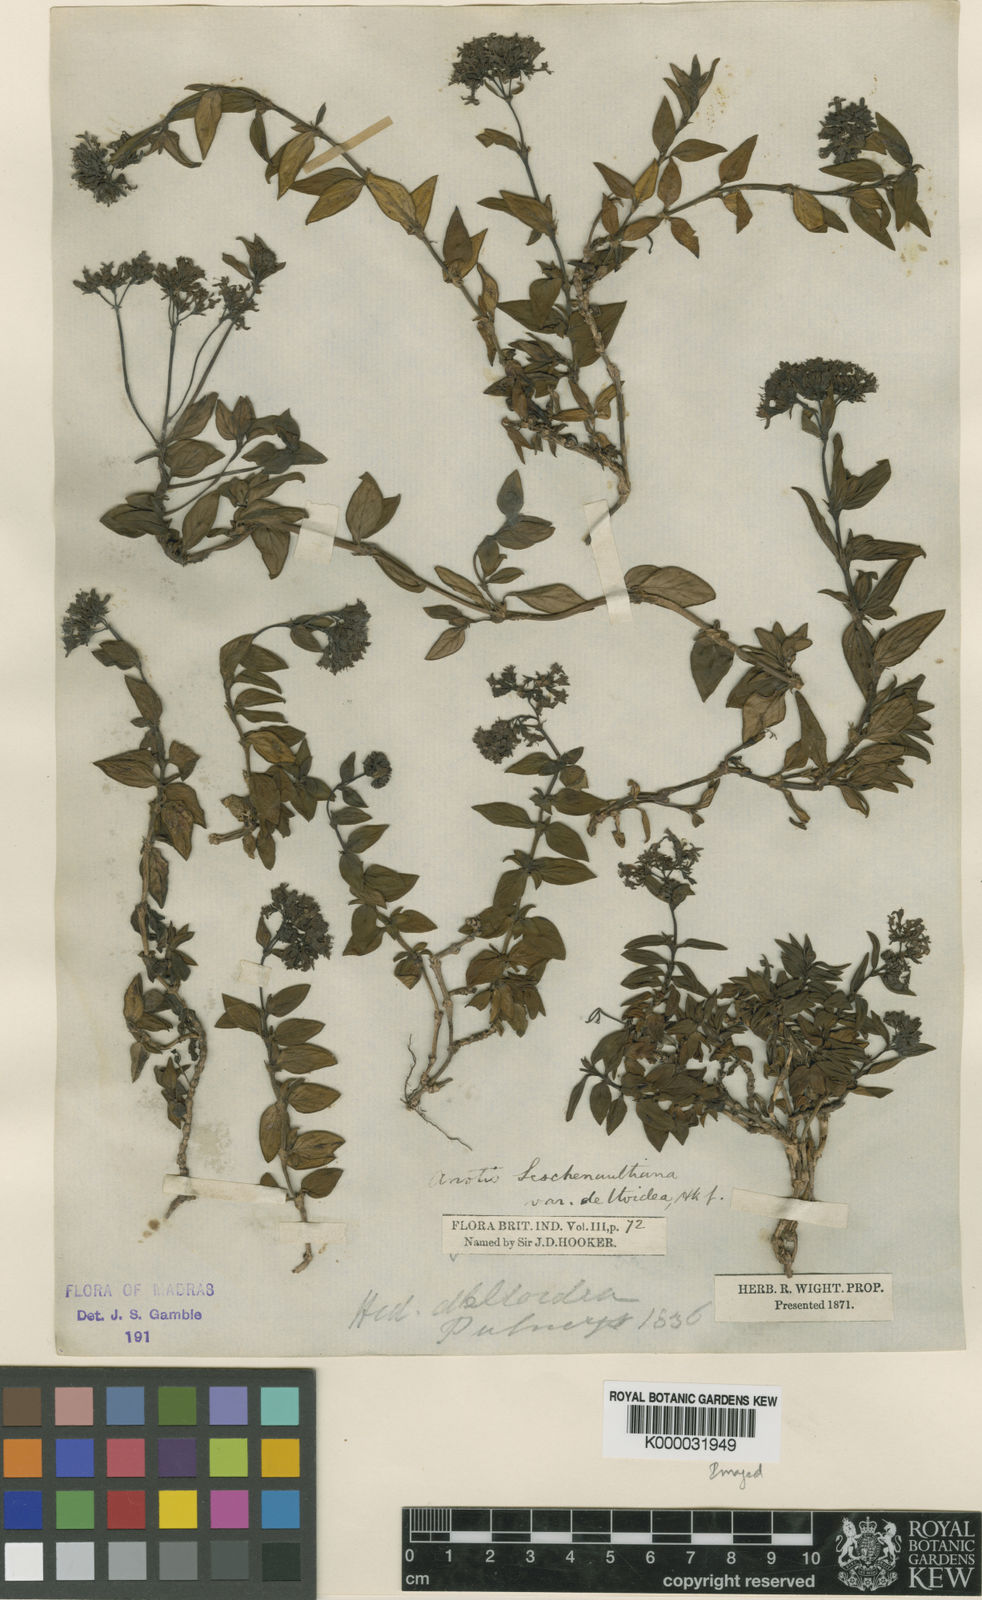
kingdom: Plantae
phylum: Tracheophyta
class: Magnoliopsida
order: Gentianales
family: Rubiaceae
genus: Neanotis
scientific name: Neanotis indica
